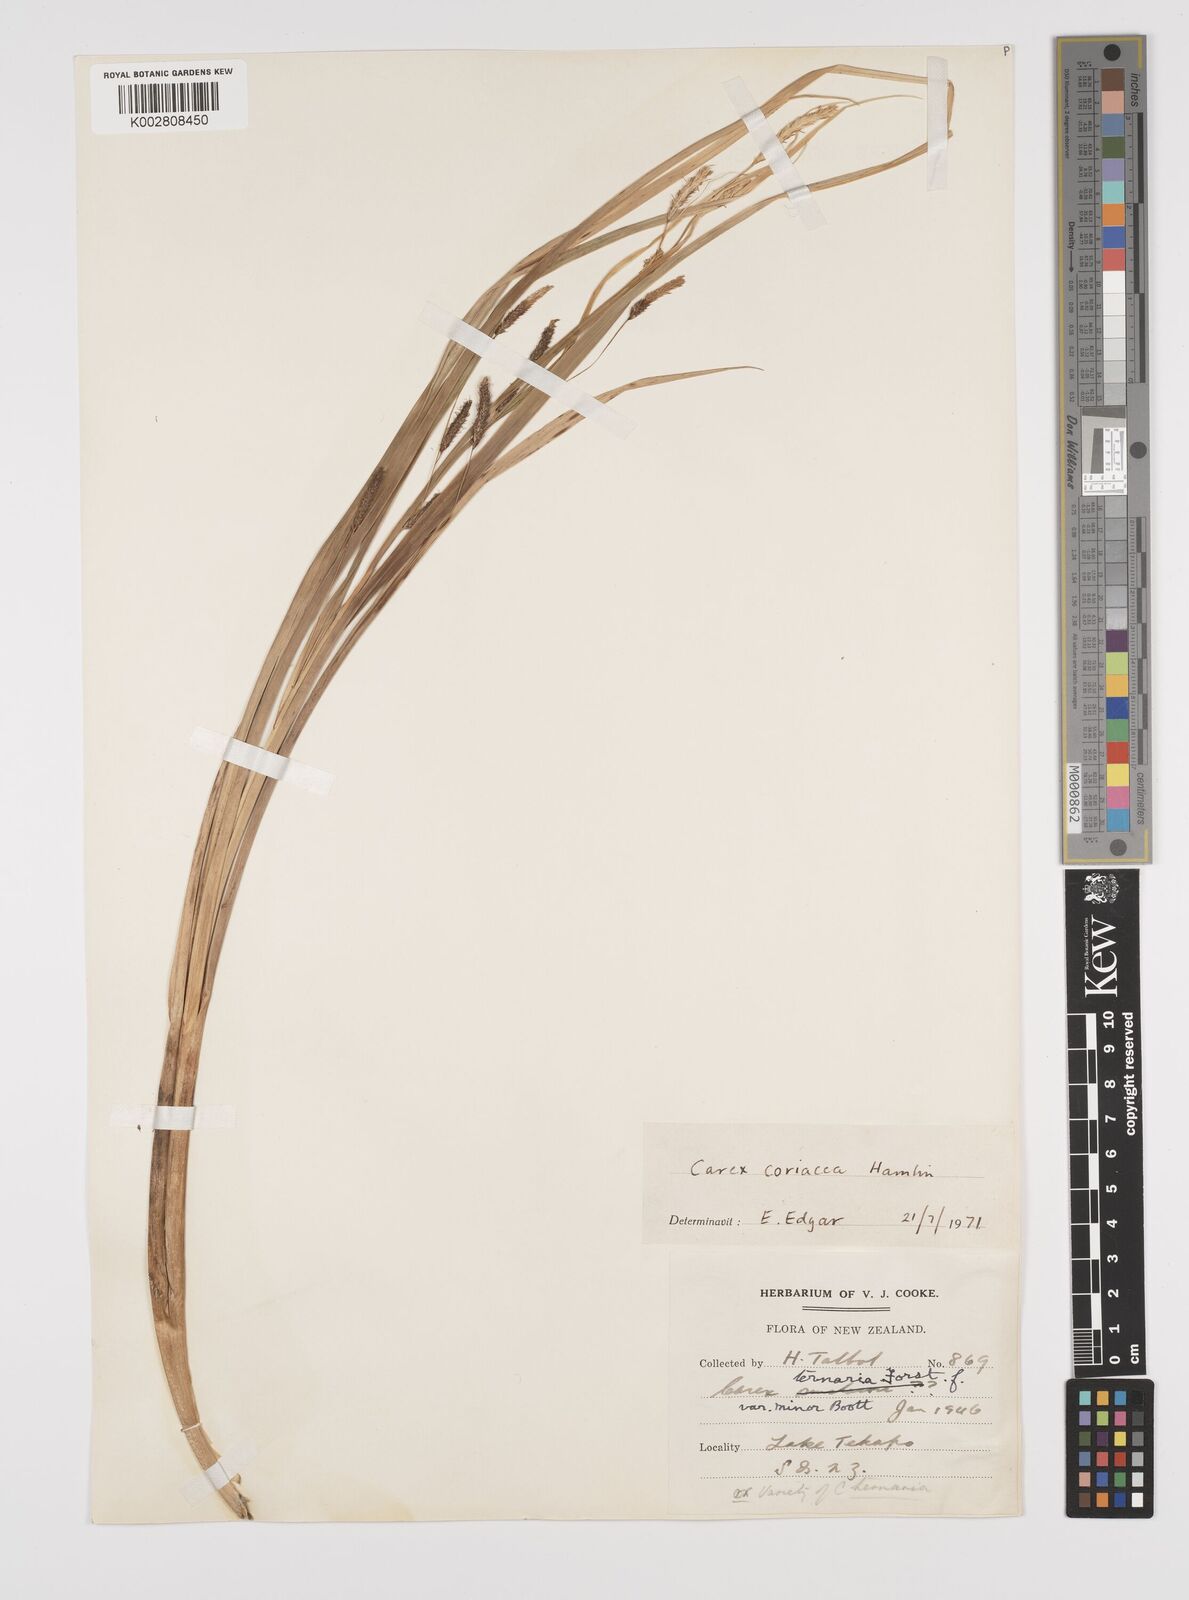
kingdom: Plantae
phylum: Tracheophyta
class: Liliopsida
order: Poales
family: Cyperaceae
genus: Carex
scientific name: Carex coriacea
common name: Rautahi
